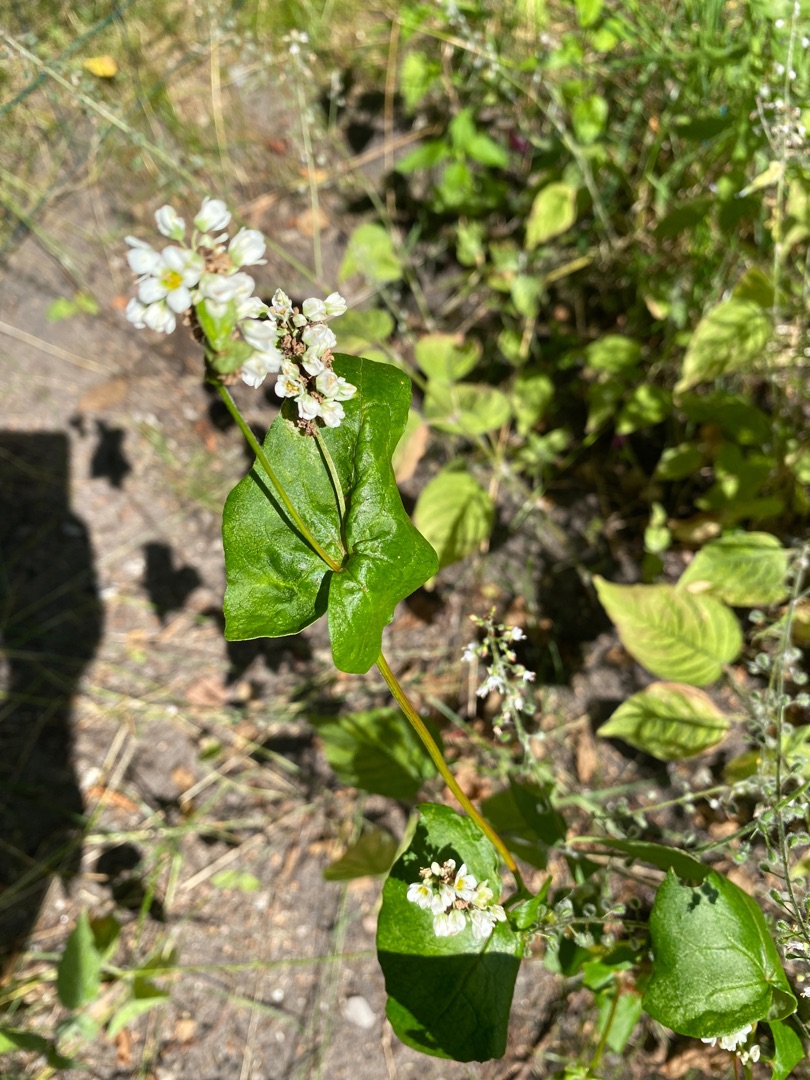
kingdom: Plantae
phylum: Tracheophyta
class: Magnoliopsida
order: Caryophyllales
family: Polygonaceae
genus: Fagopyrum
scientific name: Fagopyrum esculentum
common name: Almindelig boghvede
